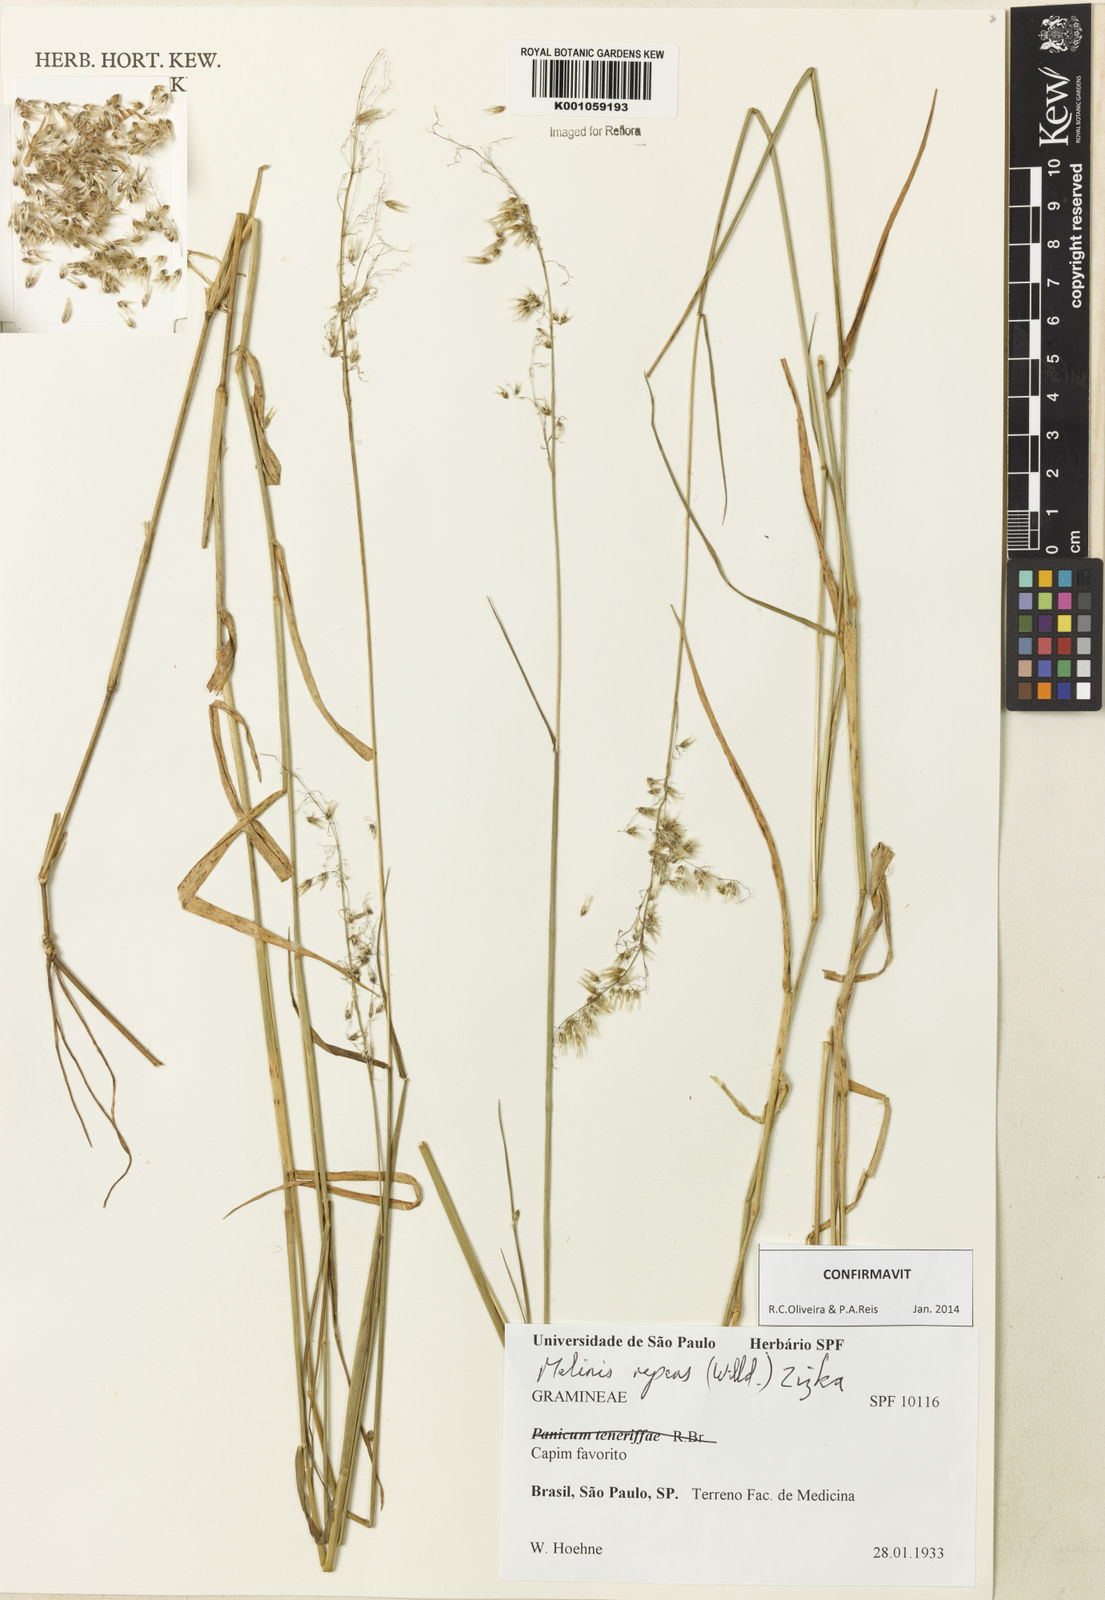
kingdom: Plantae
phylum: Tracheophyta
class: Liliopsida
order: Poales
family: Poaceae
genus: Melinis
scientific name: Melinis repens
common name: Rose natal grass
